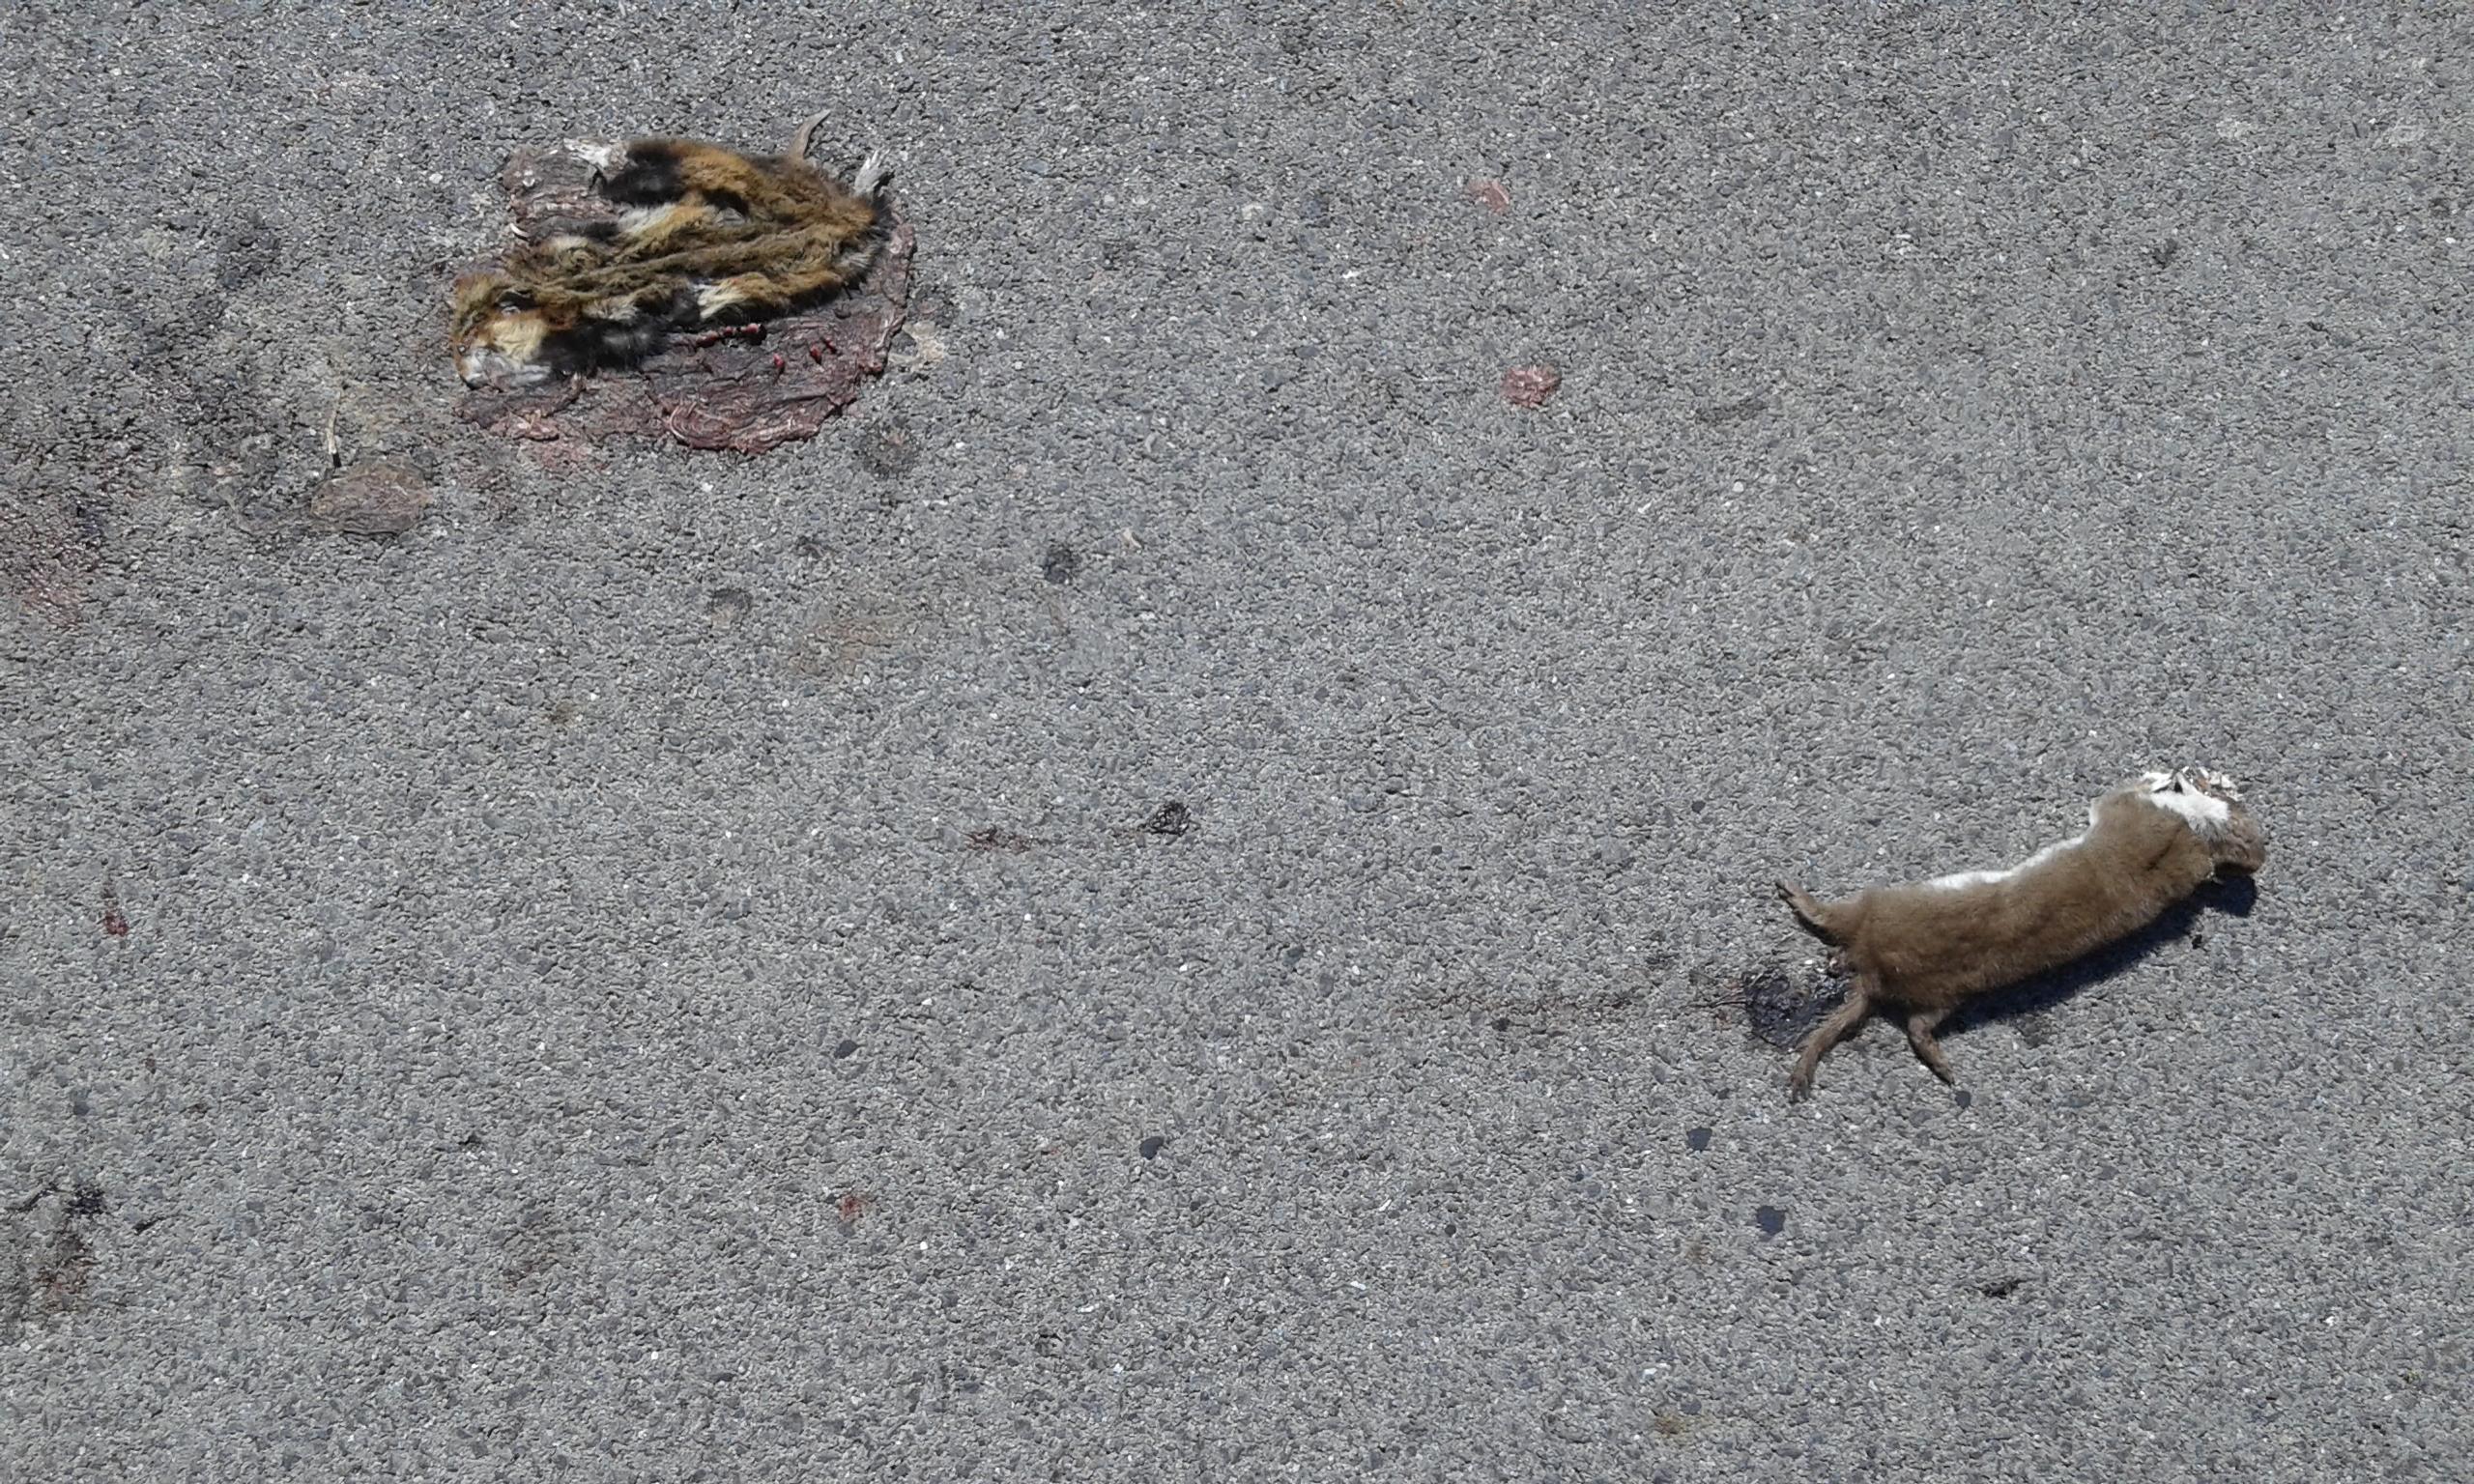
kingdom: Animalia
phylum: Chordata
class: Mammalia
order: Carnivora
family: Mustelidae
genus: Mustela
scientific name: Mustela nivalis
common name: Least weasel
